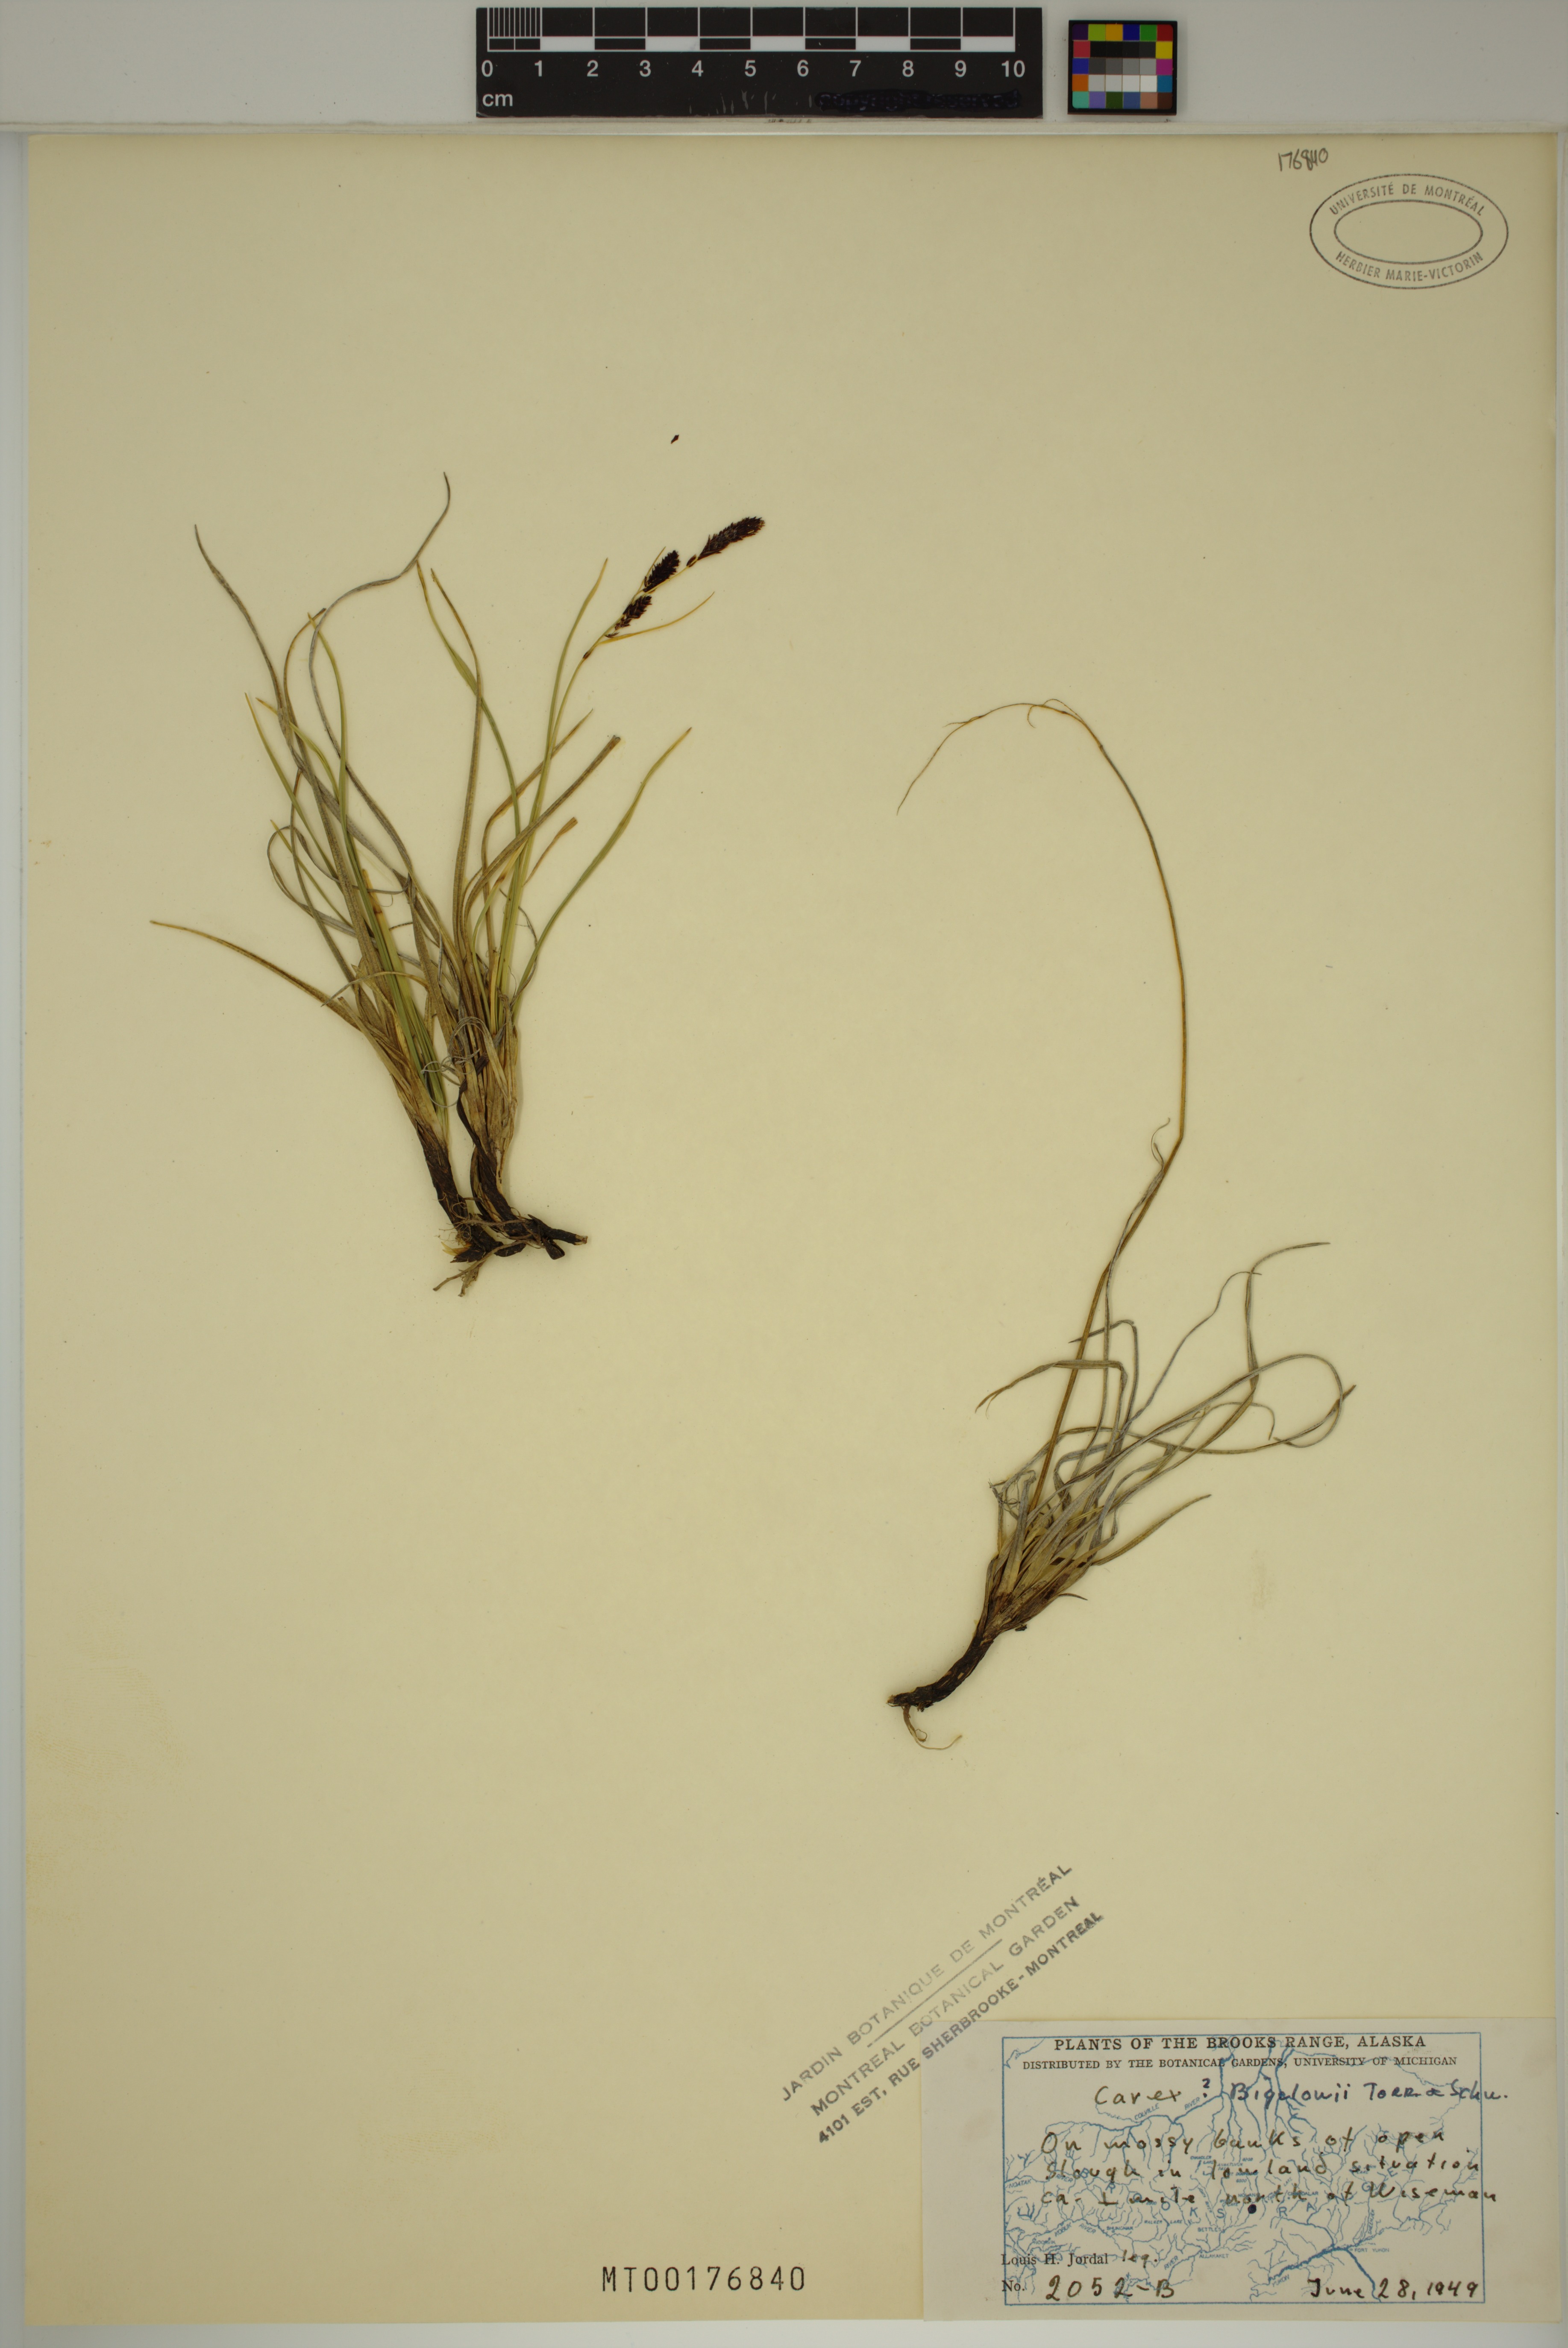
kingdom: Plantae
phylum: Tracheophyta
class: Liliopsida
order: Poales
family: Cyperaceae
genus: Carex
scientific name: Carex bigelowii
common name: Stiff sedge
